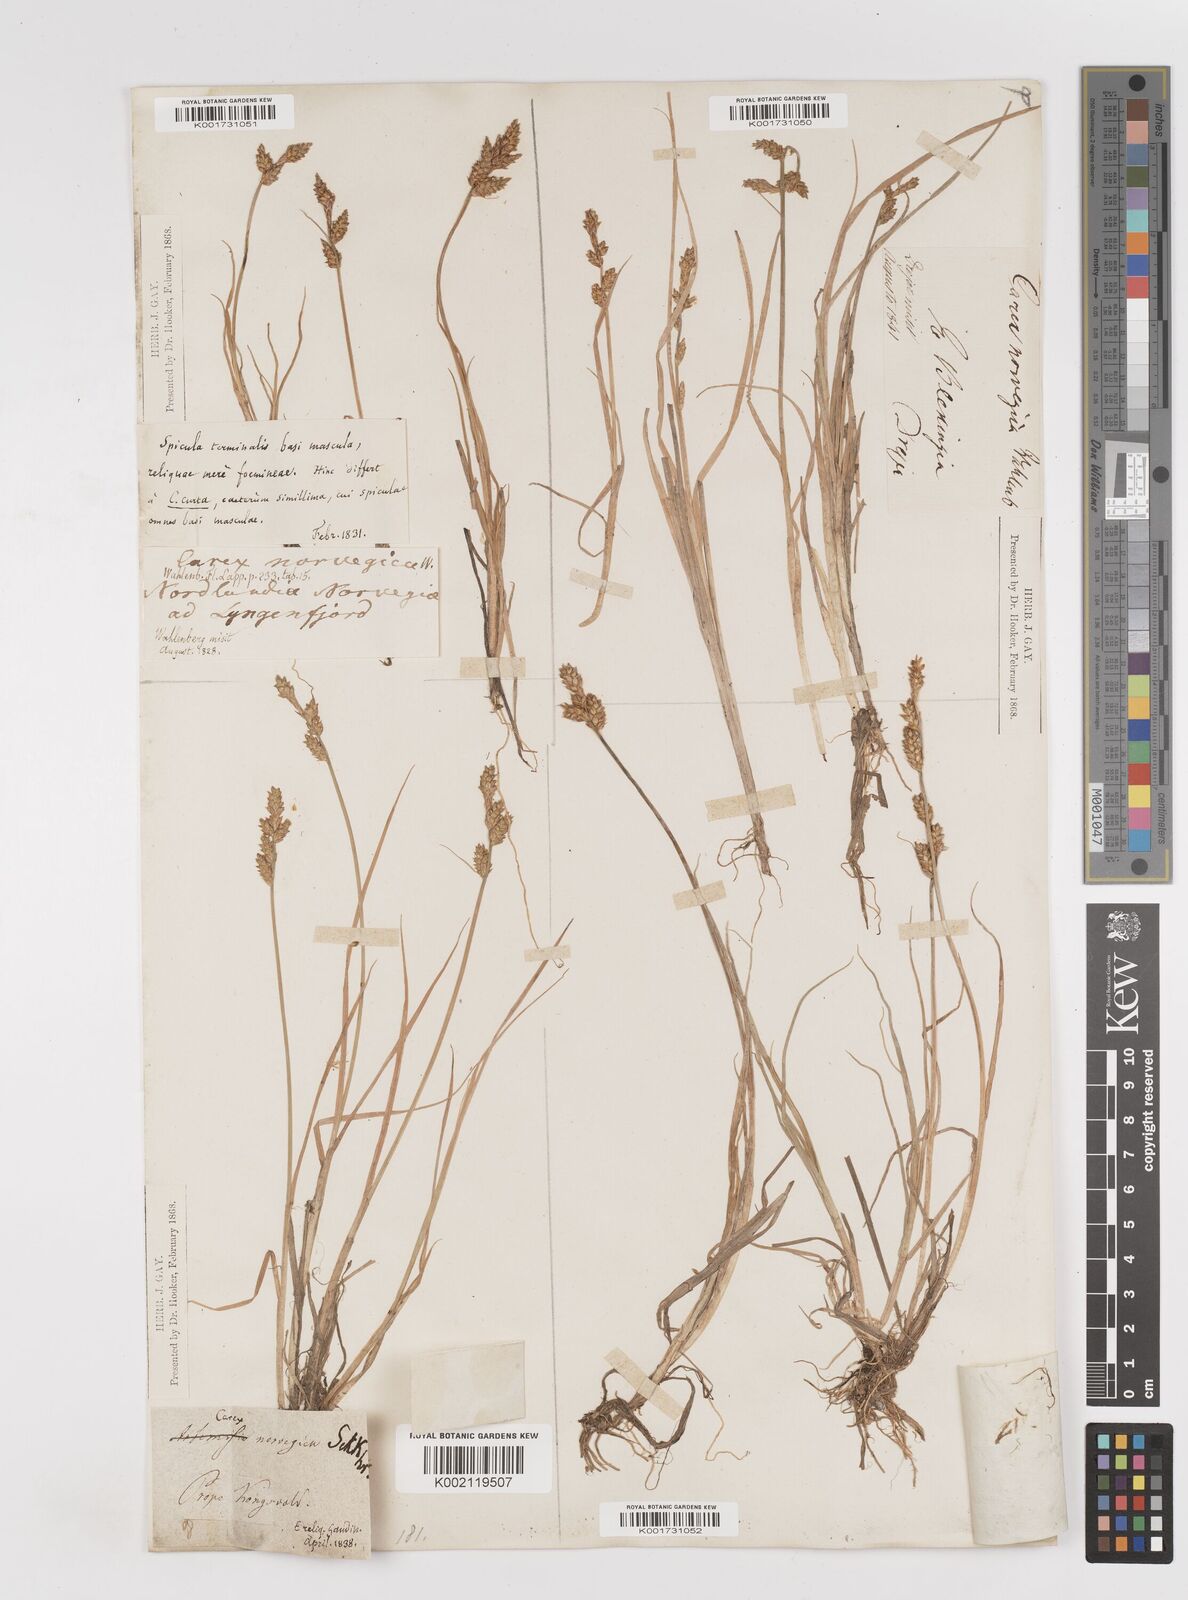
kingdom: Plantae
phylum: Tracheophyta
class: Liliopsida
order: Poales
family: Cyperaceae
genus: Carex
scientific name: Carex mackenziei
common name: Mackenzie's sedge
